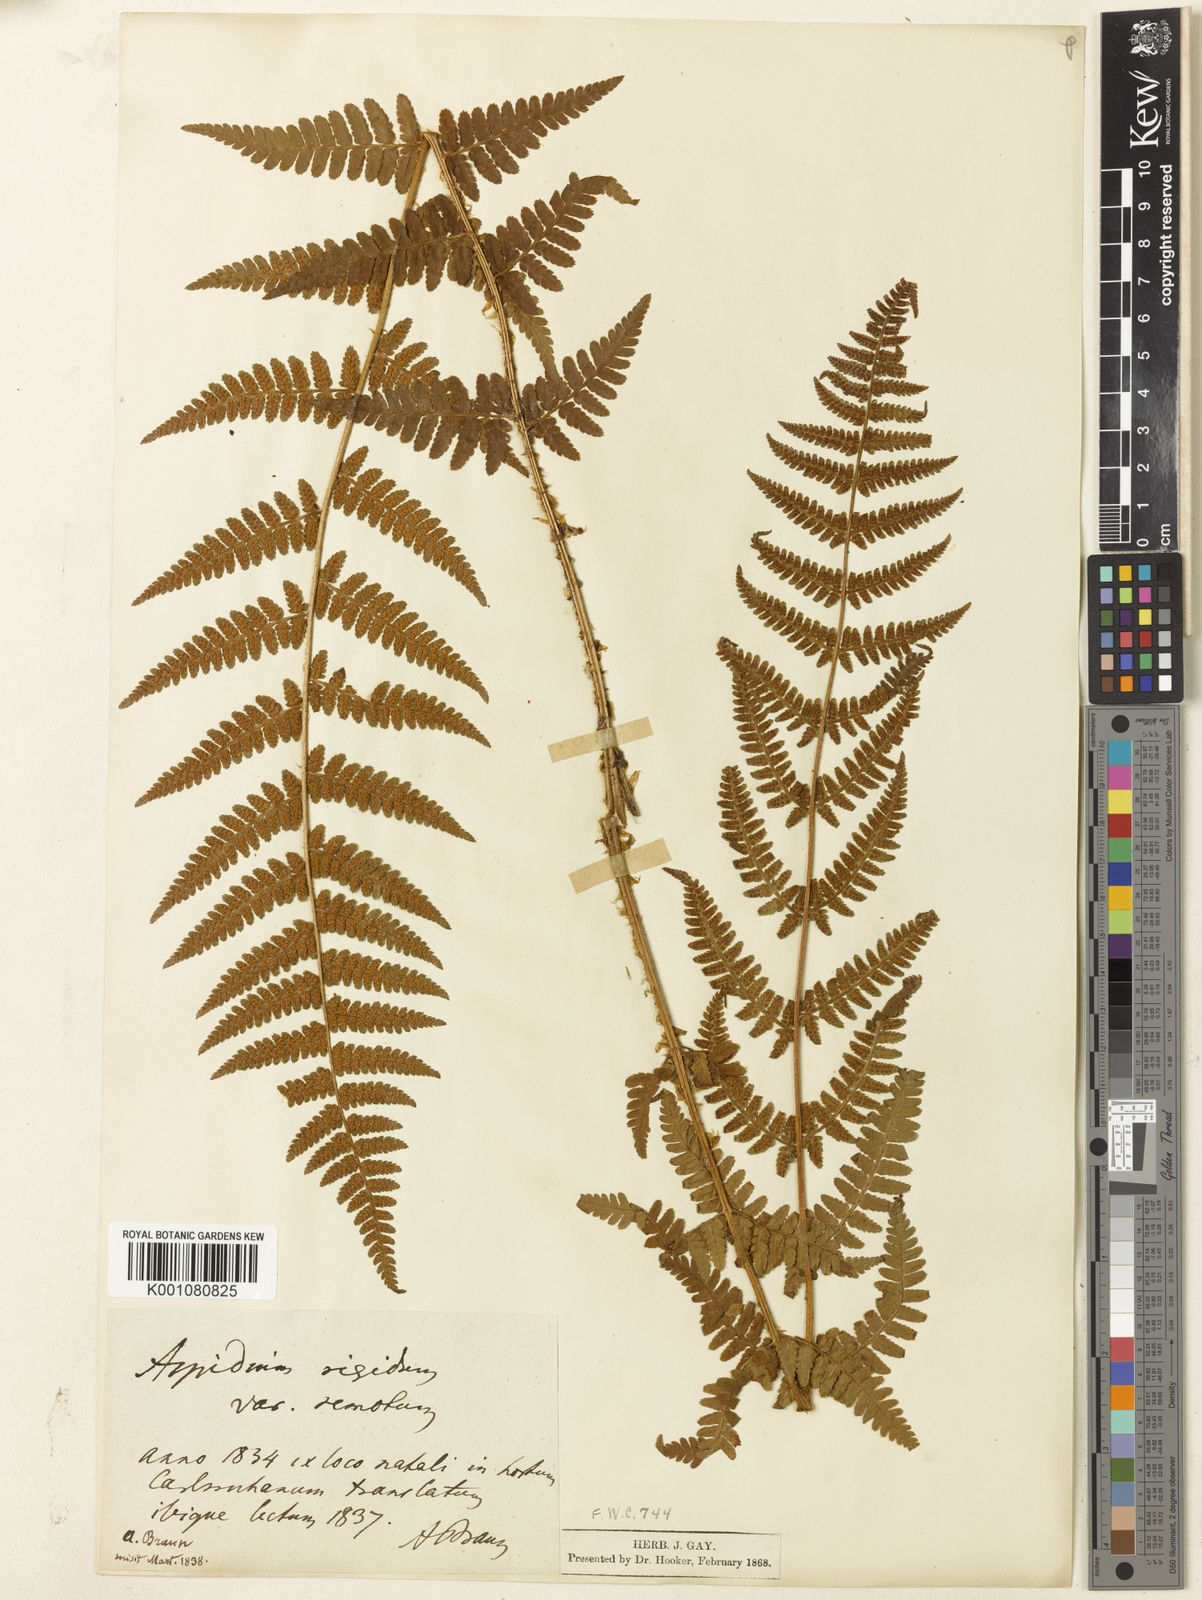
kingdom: Plantae
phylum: Tracheophyta
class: Polypodiopsida
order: Polypodiales
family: Dryopteridaceae
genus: Dryopteris
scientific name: Dryopteris affinis
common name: Scaly male fern
